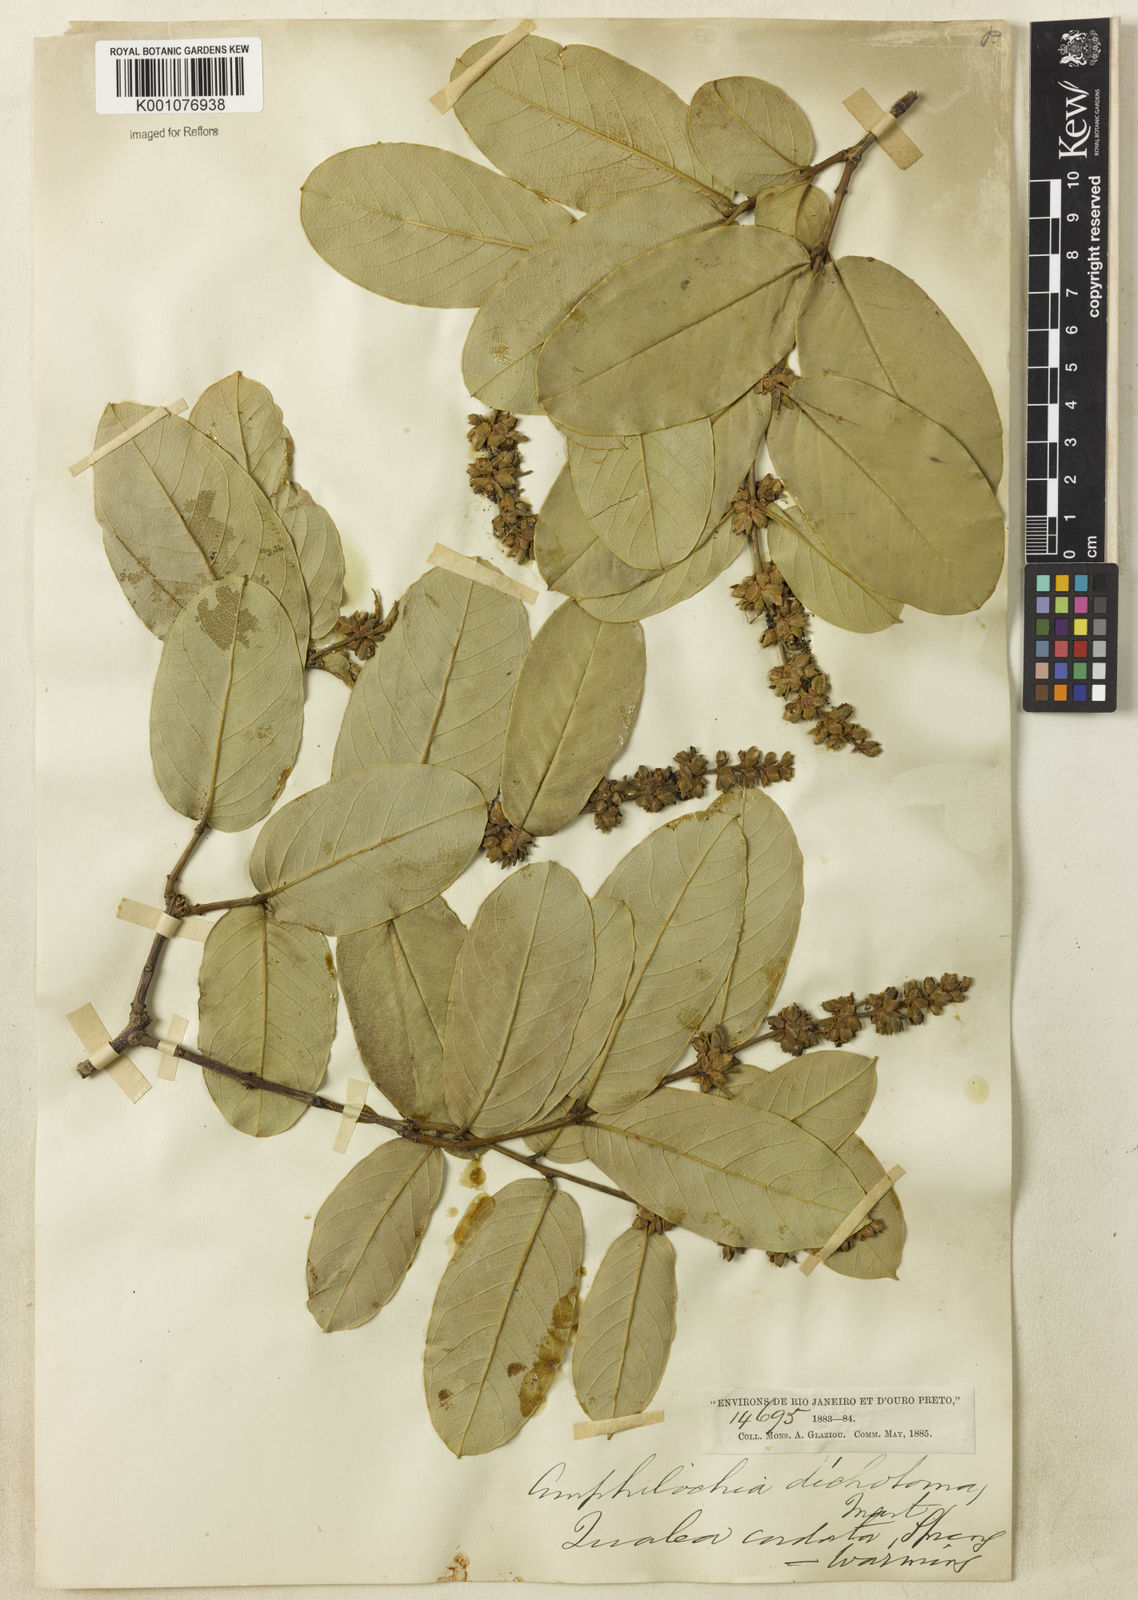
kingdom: Plantae
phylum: Tracheophyta
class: Magnoliopsida
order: Myrtales
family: Vochysiaceae
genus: Qualea
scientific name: Qualea cordata
